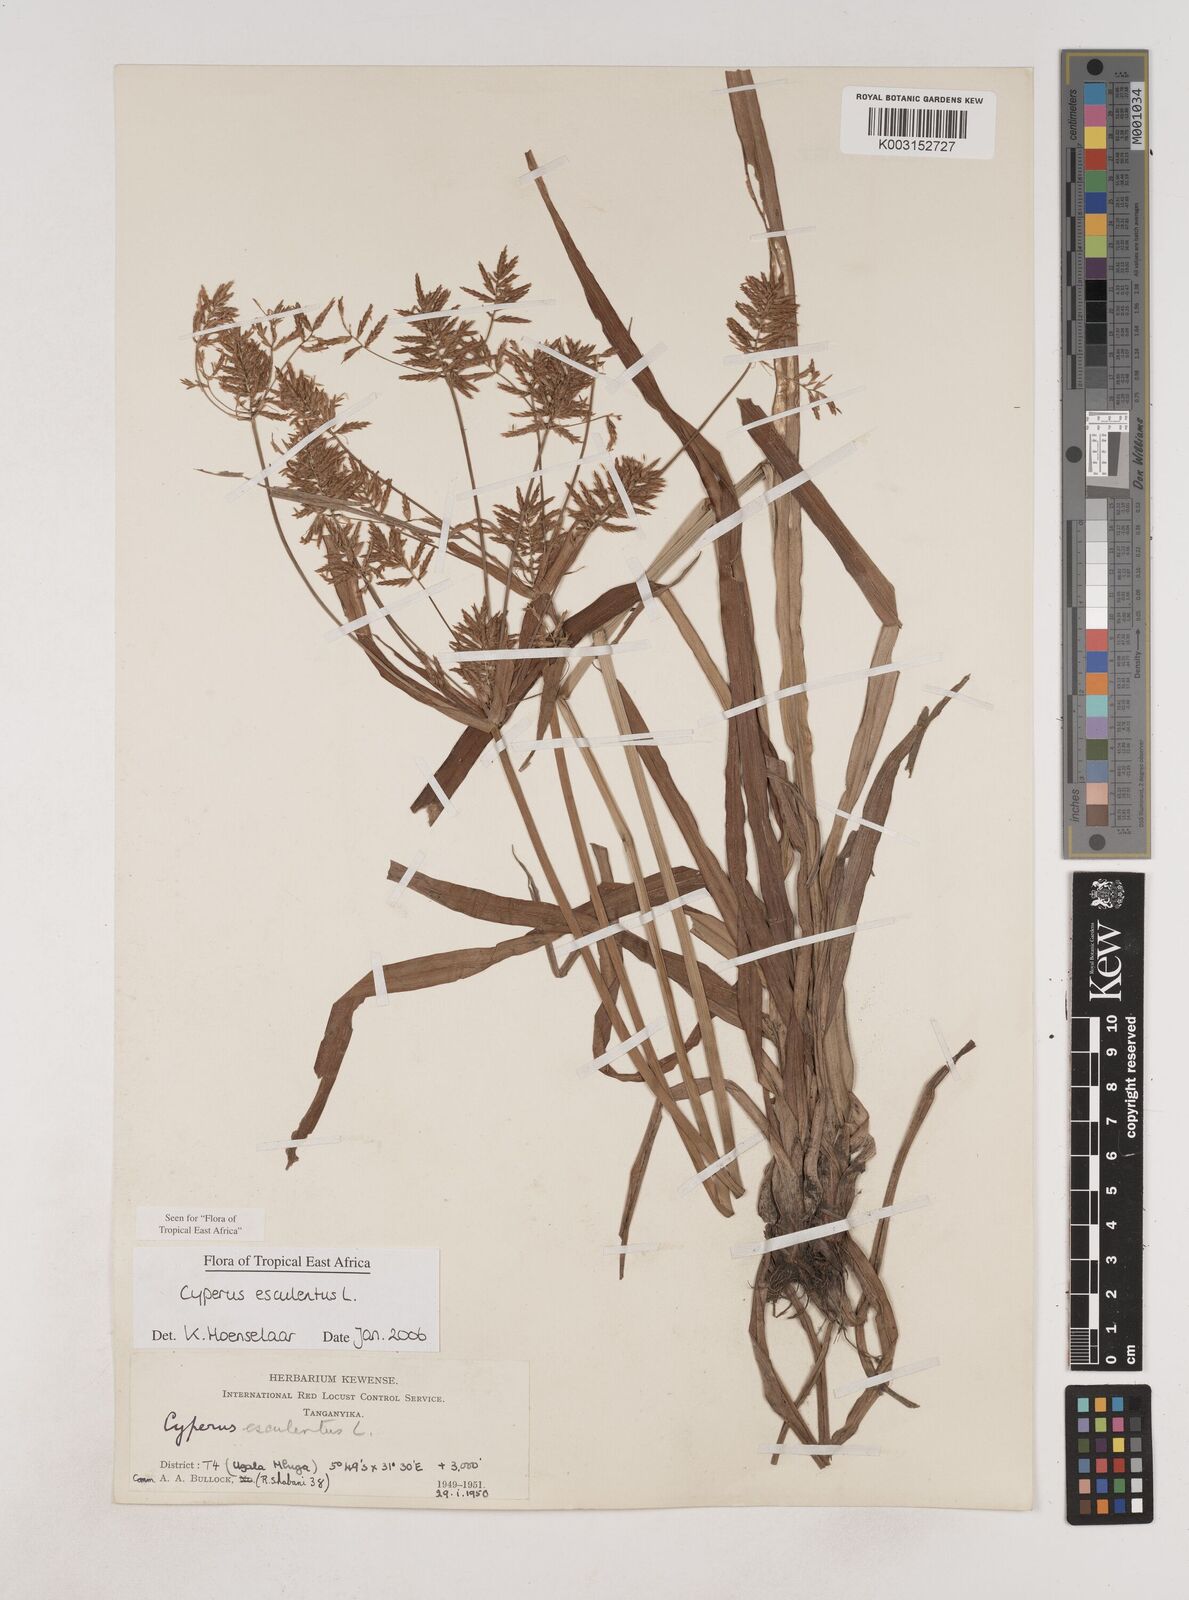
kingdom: Plantae
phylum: Tracheophyta
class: Liliopsida
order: Poales
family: Cyperaceae
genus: Cyperus
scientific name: Cyperus esculentus
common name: Yellow nutsedge
